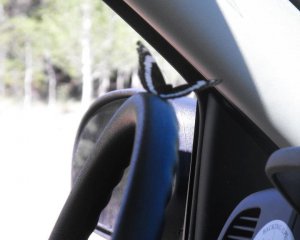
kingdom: Animalia
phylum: Arthropoda
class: Insecta
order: Lepidoptera
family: Nymphalidae
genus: Limenitis
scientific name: Limenitis weidemeyerii
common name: Weidemeyer's Admiral
